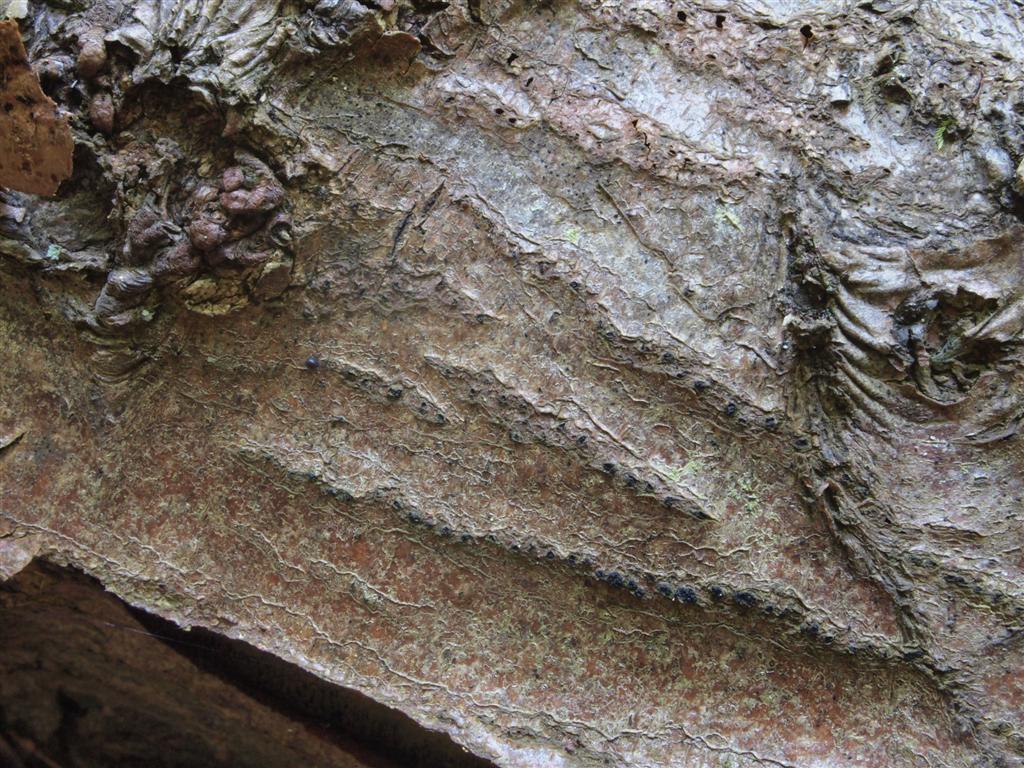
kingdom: Fungi
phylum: Ascomycota
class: Sordariomycetes
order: Xylariales
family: Hypoxylaceae
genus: Hypoxylon
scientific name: Hypoxylon fragiforme
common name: kuljordbær
